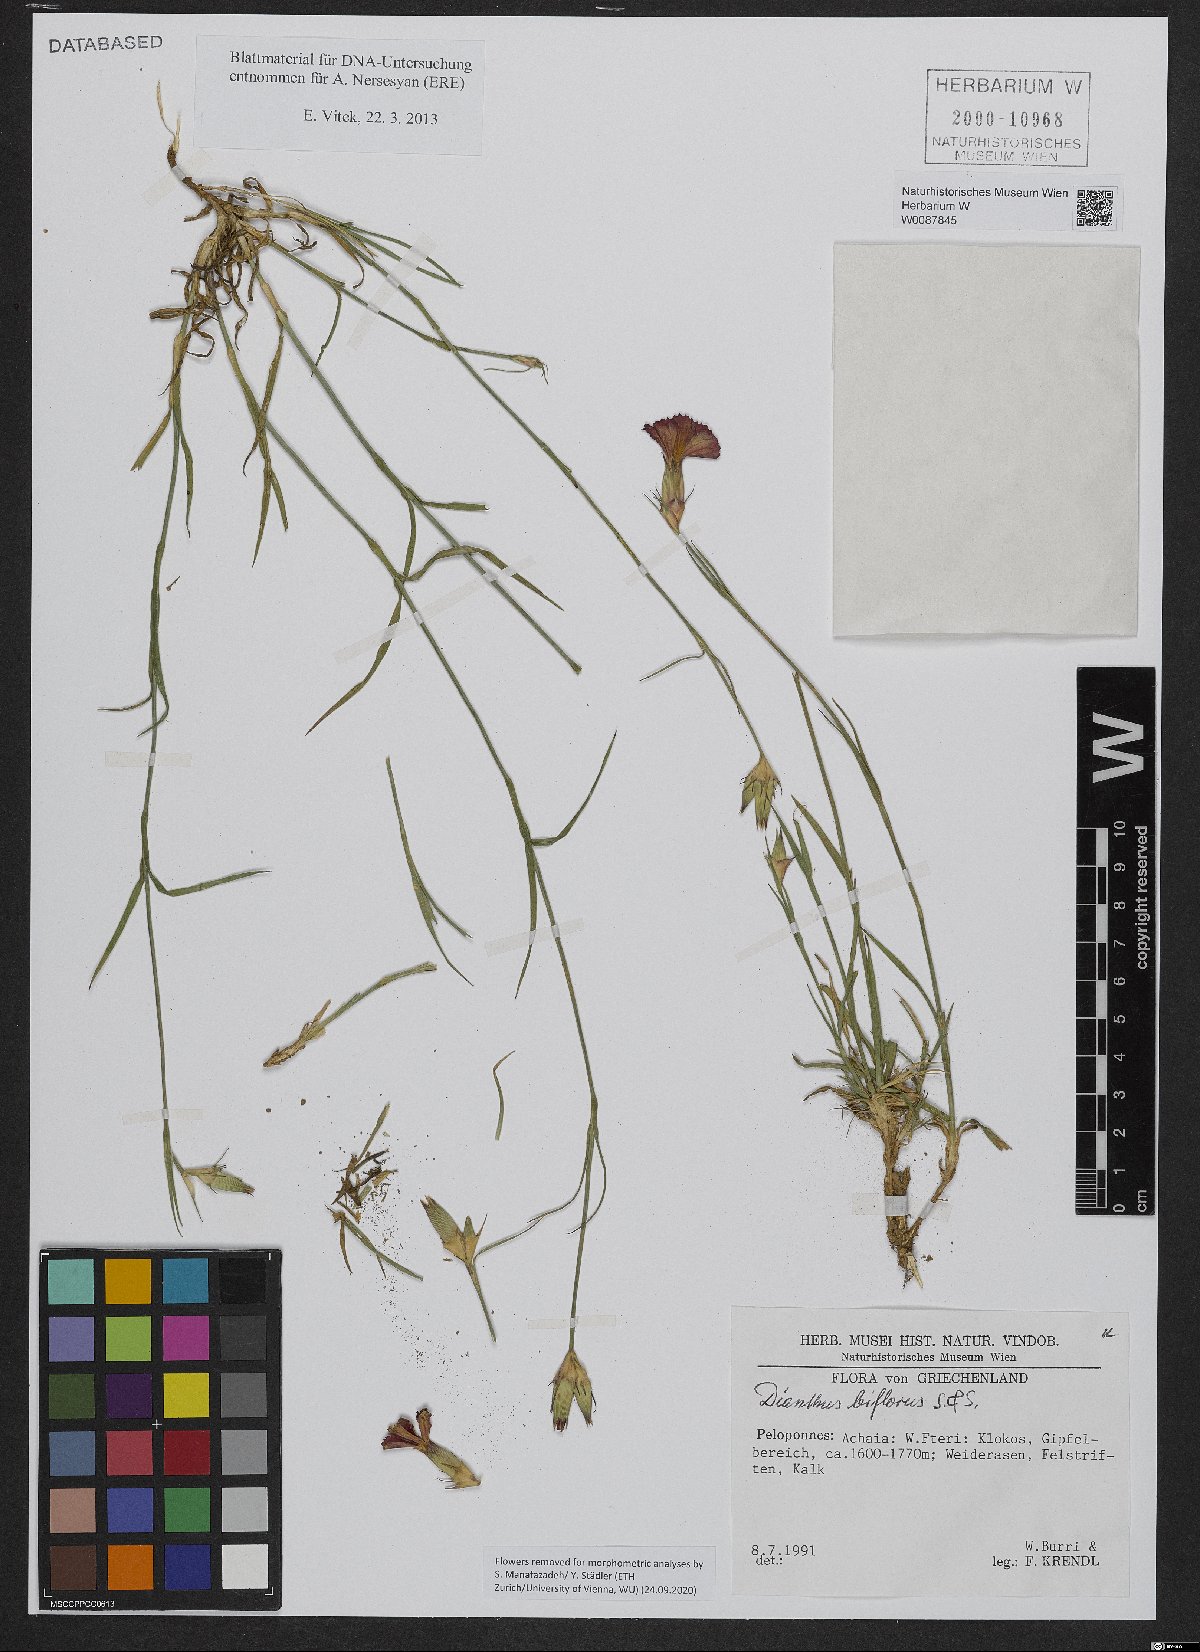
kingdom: Plantae
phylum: Tracheophyta
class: Magnoliopsida
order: Caryophyllales
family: Caryophyllaceae
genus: Dianthus
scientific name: Dianthus biflorus
